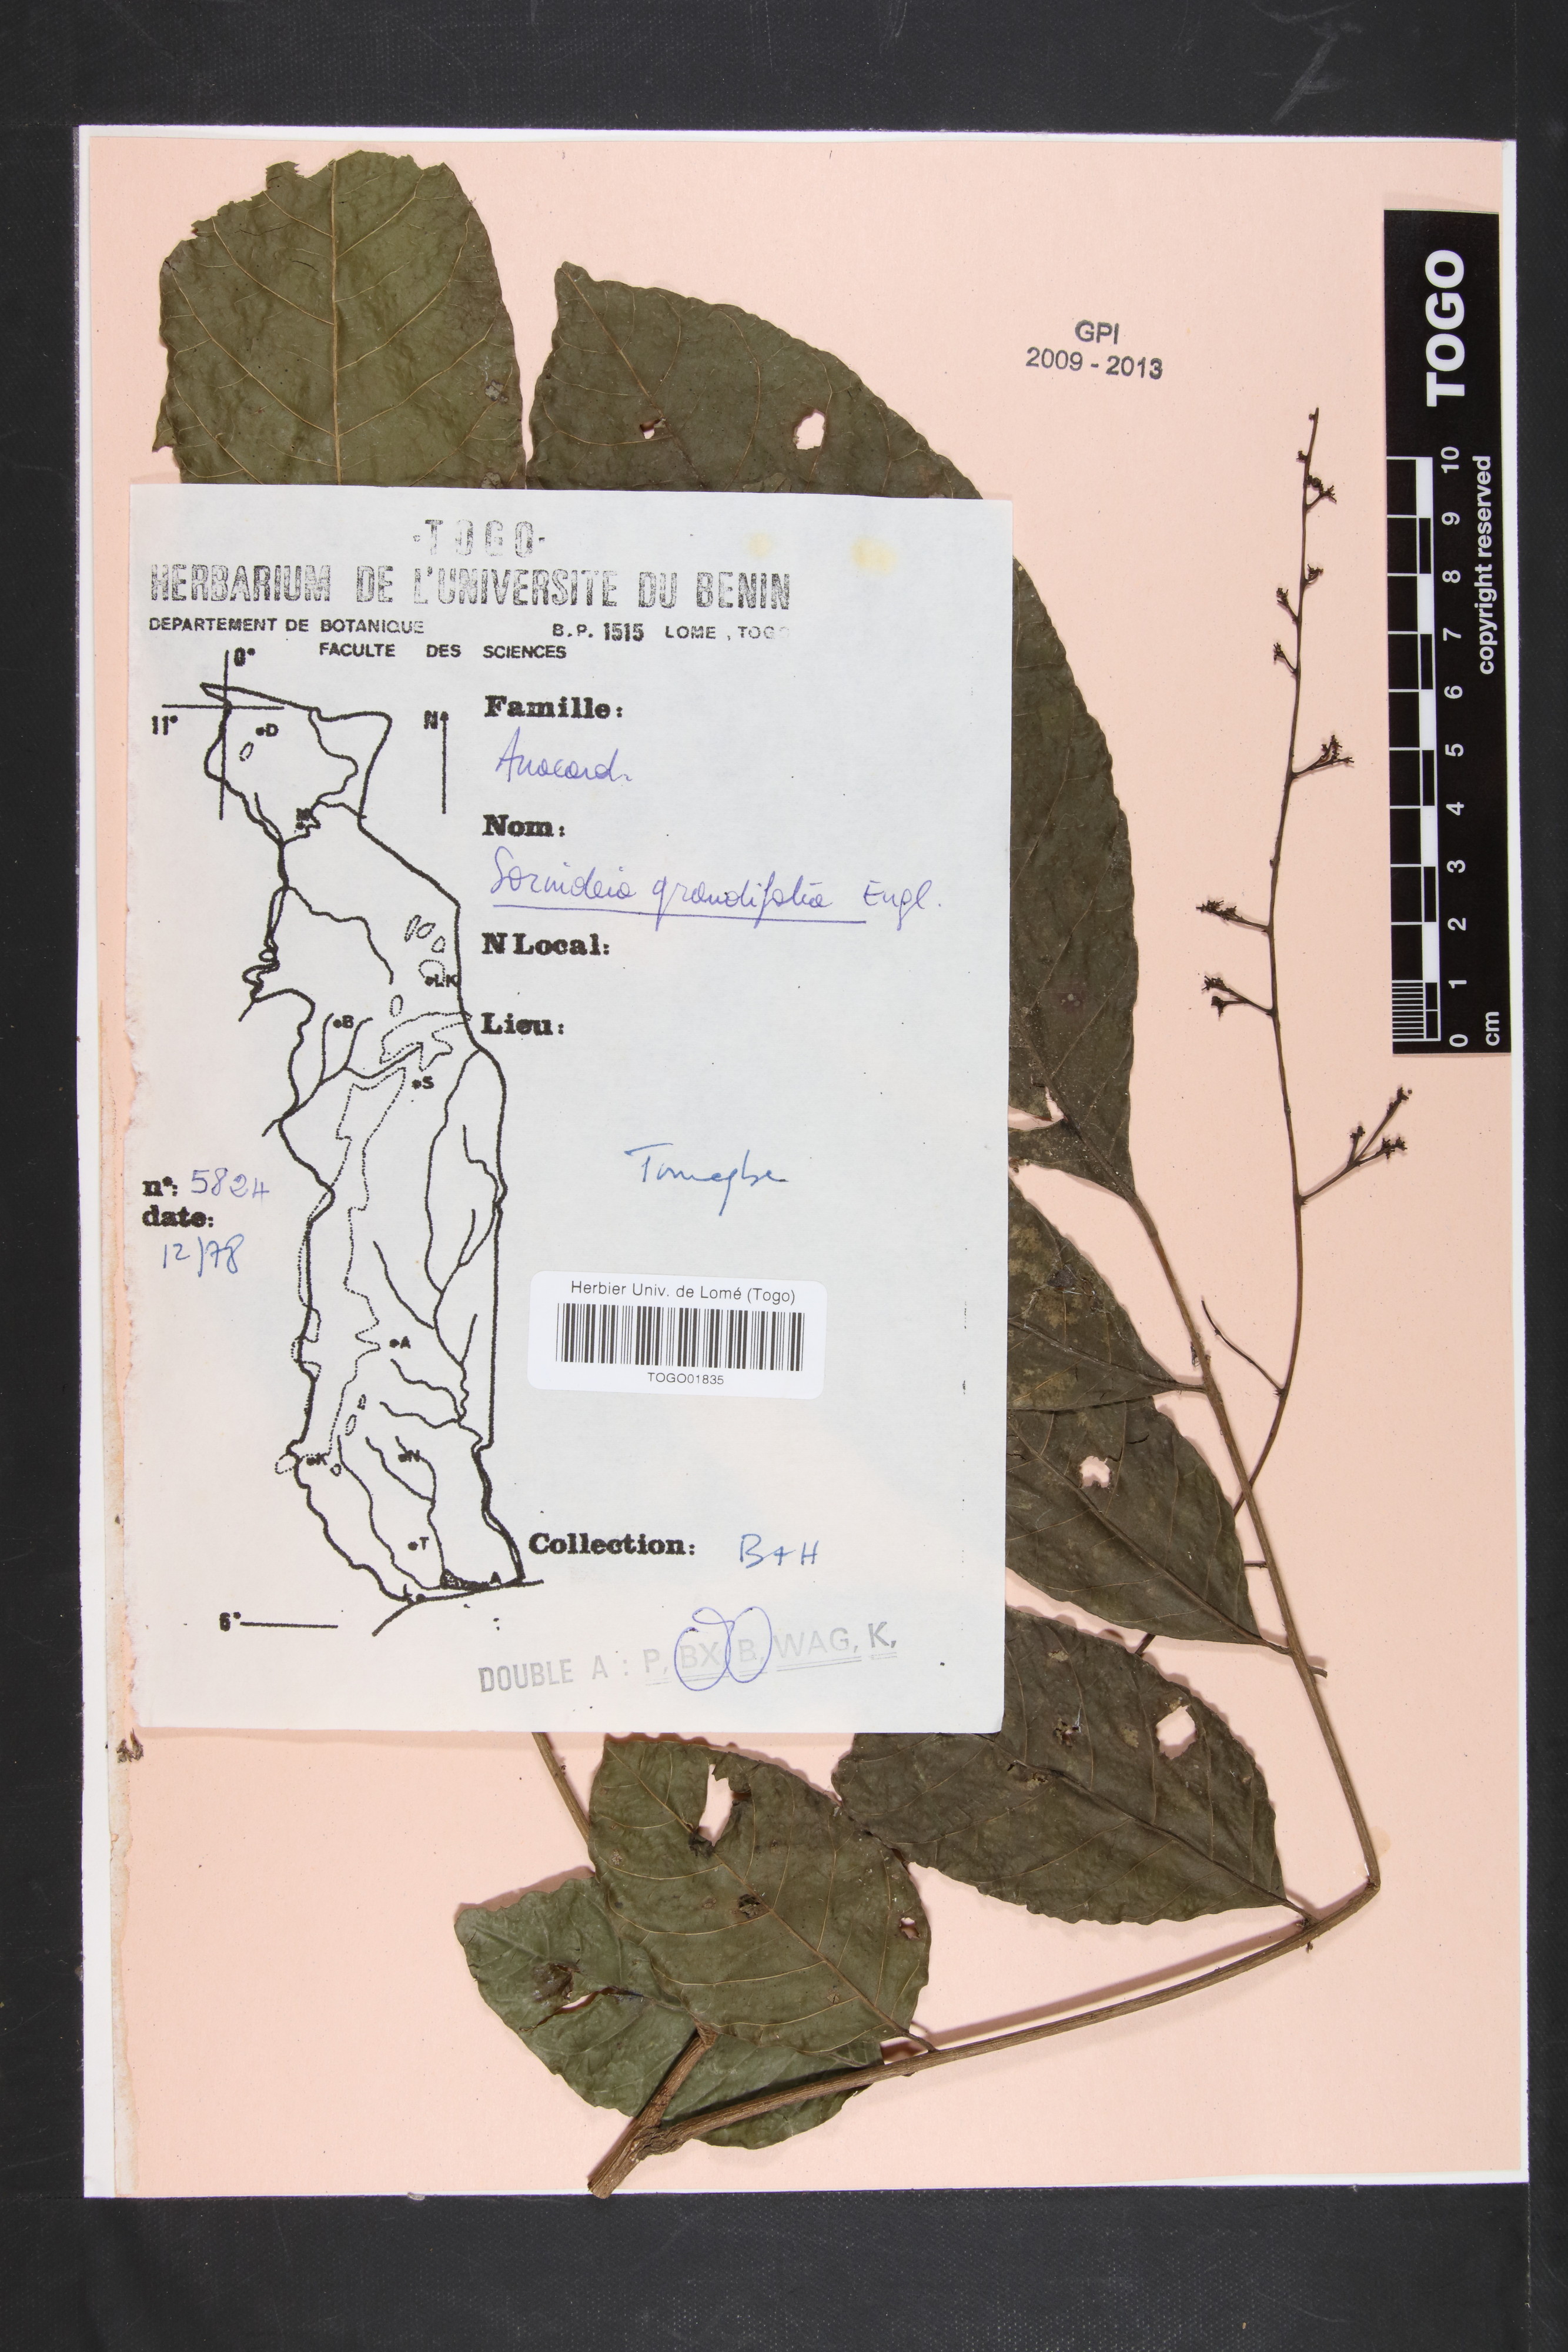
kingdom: Plantae
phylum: Tracheophyta
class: Magnoliopsida
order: Sapindales
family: Anacardiaceae
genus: Sorindeia
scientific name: Sorindeia grandifolia
